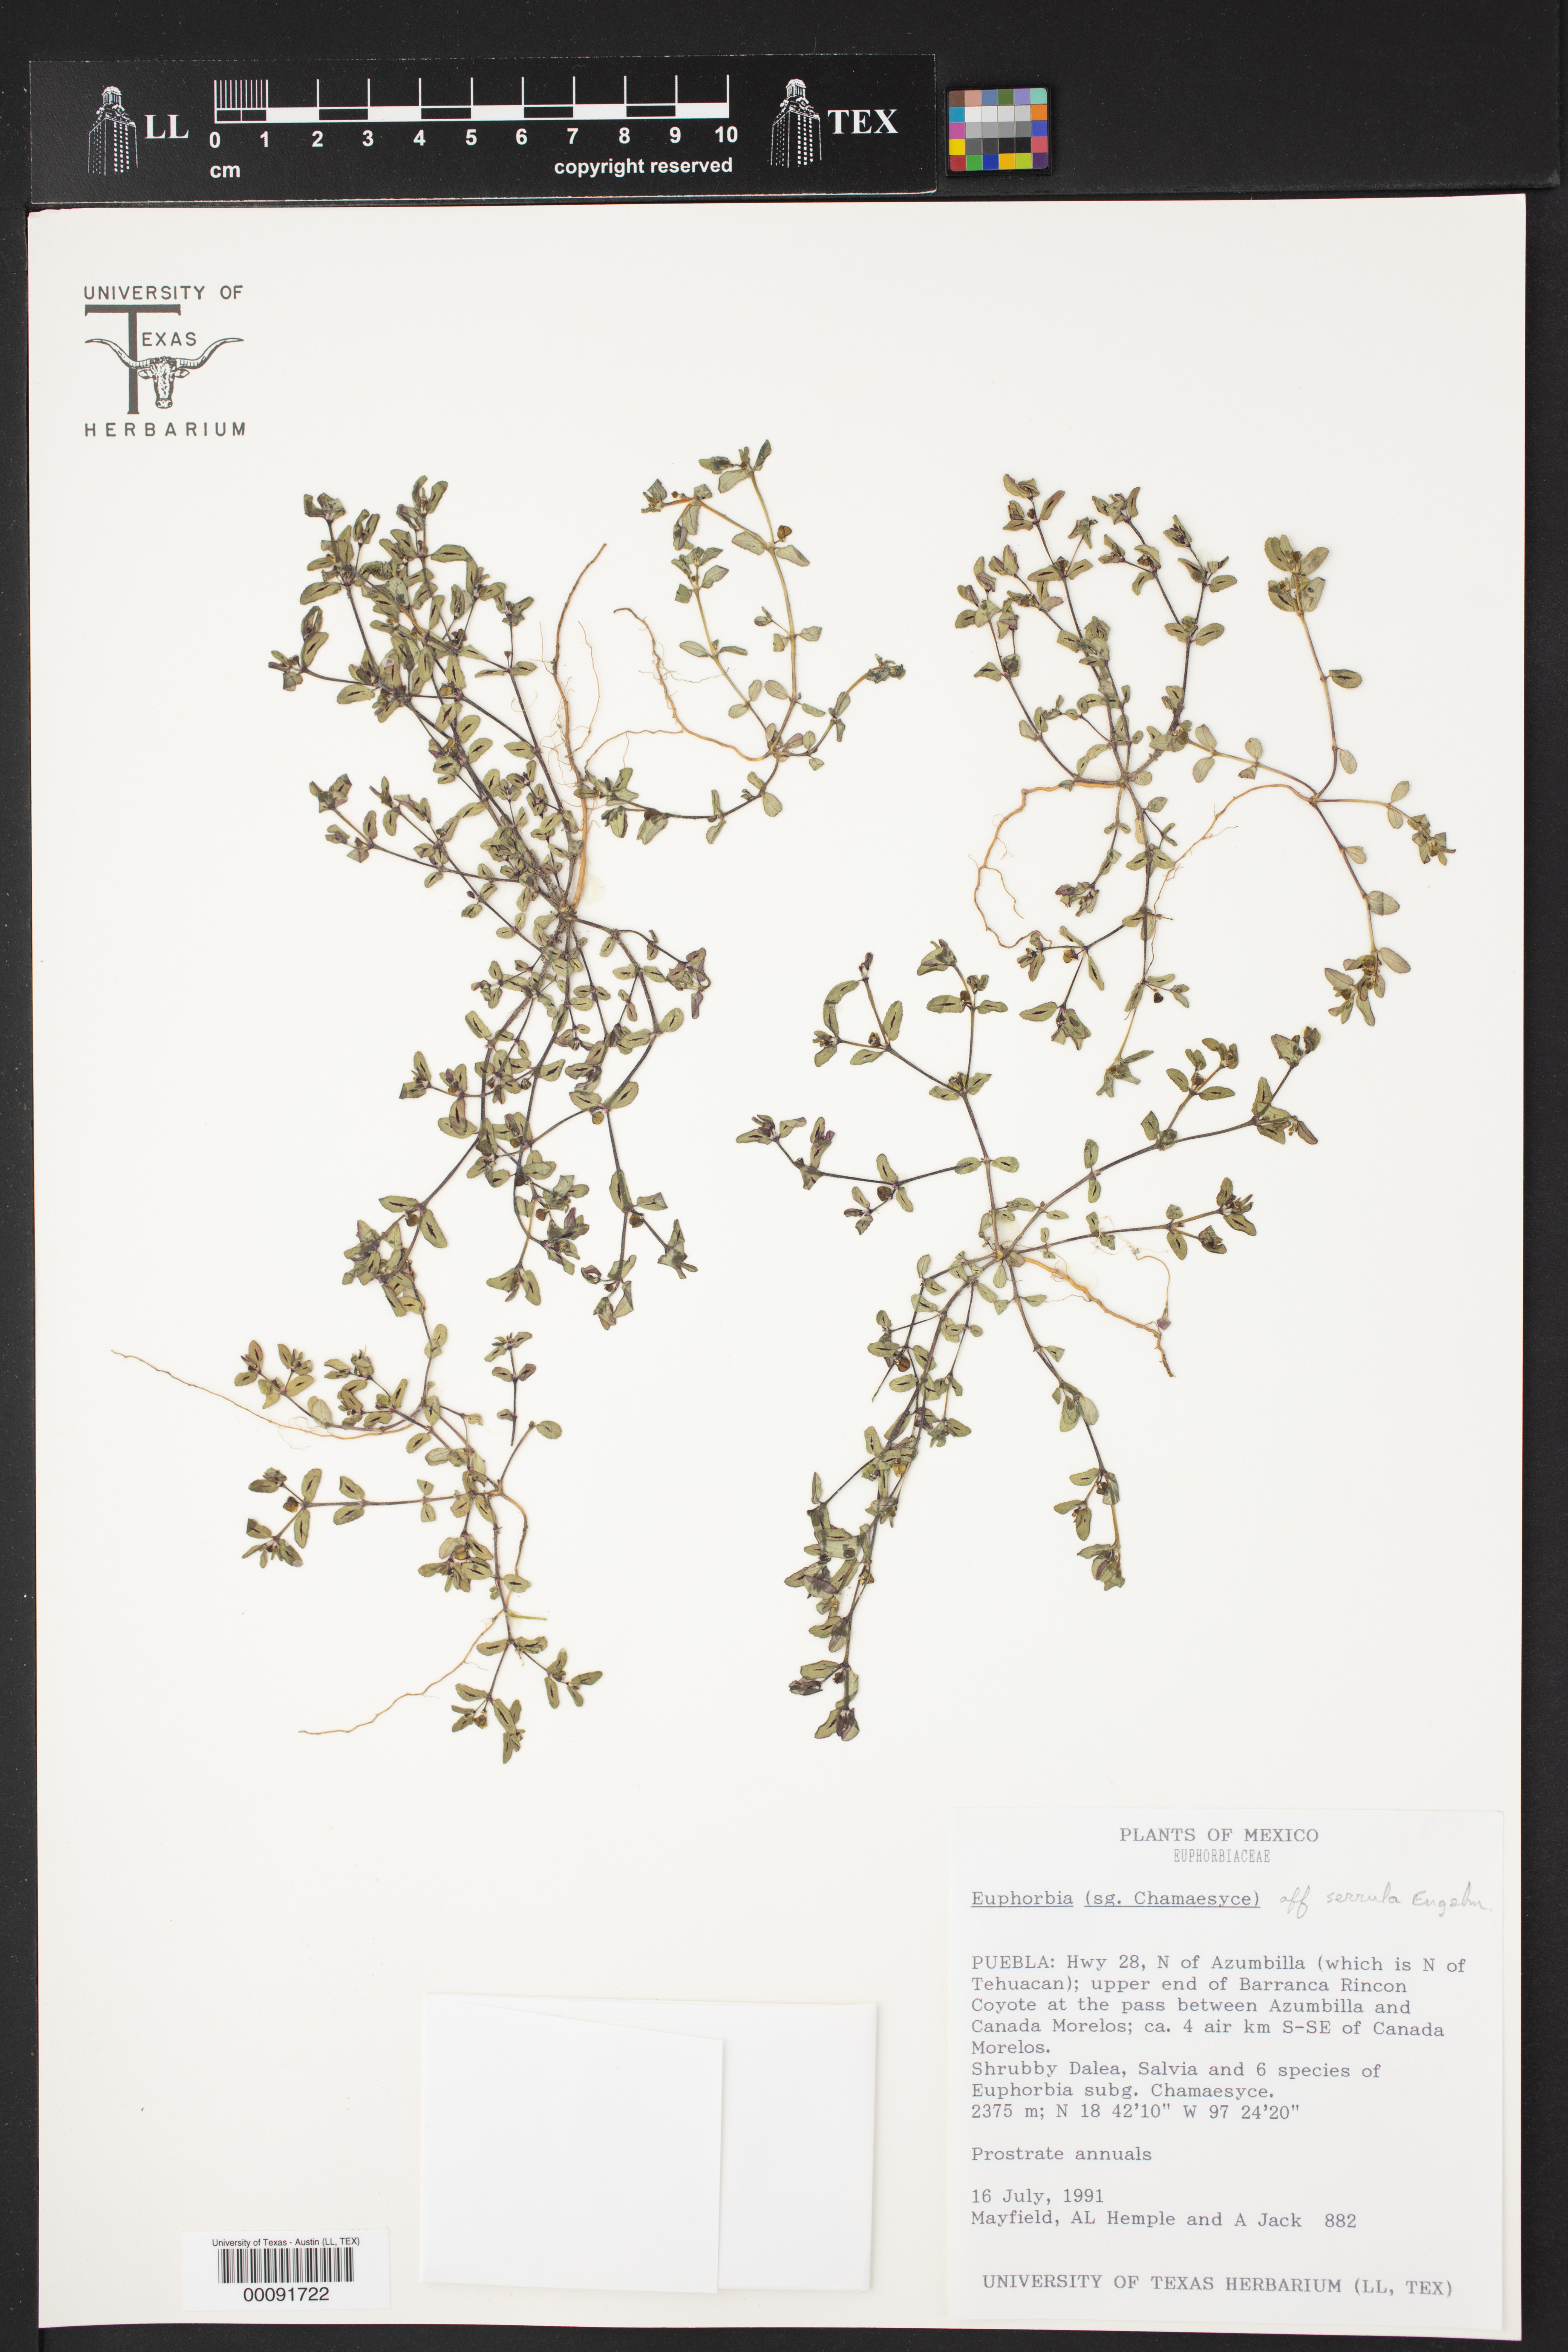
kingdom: Plantae
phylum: Tracheophyta
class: Magnoliopsida
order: Malpighiales
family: Euphorbiaceae
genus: Chamaesyce
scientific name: Chamaesyce
